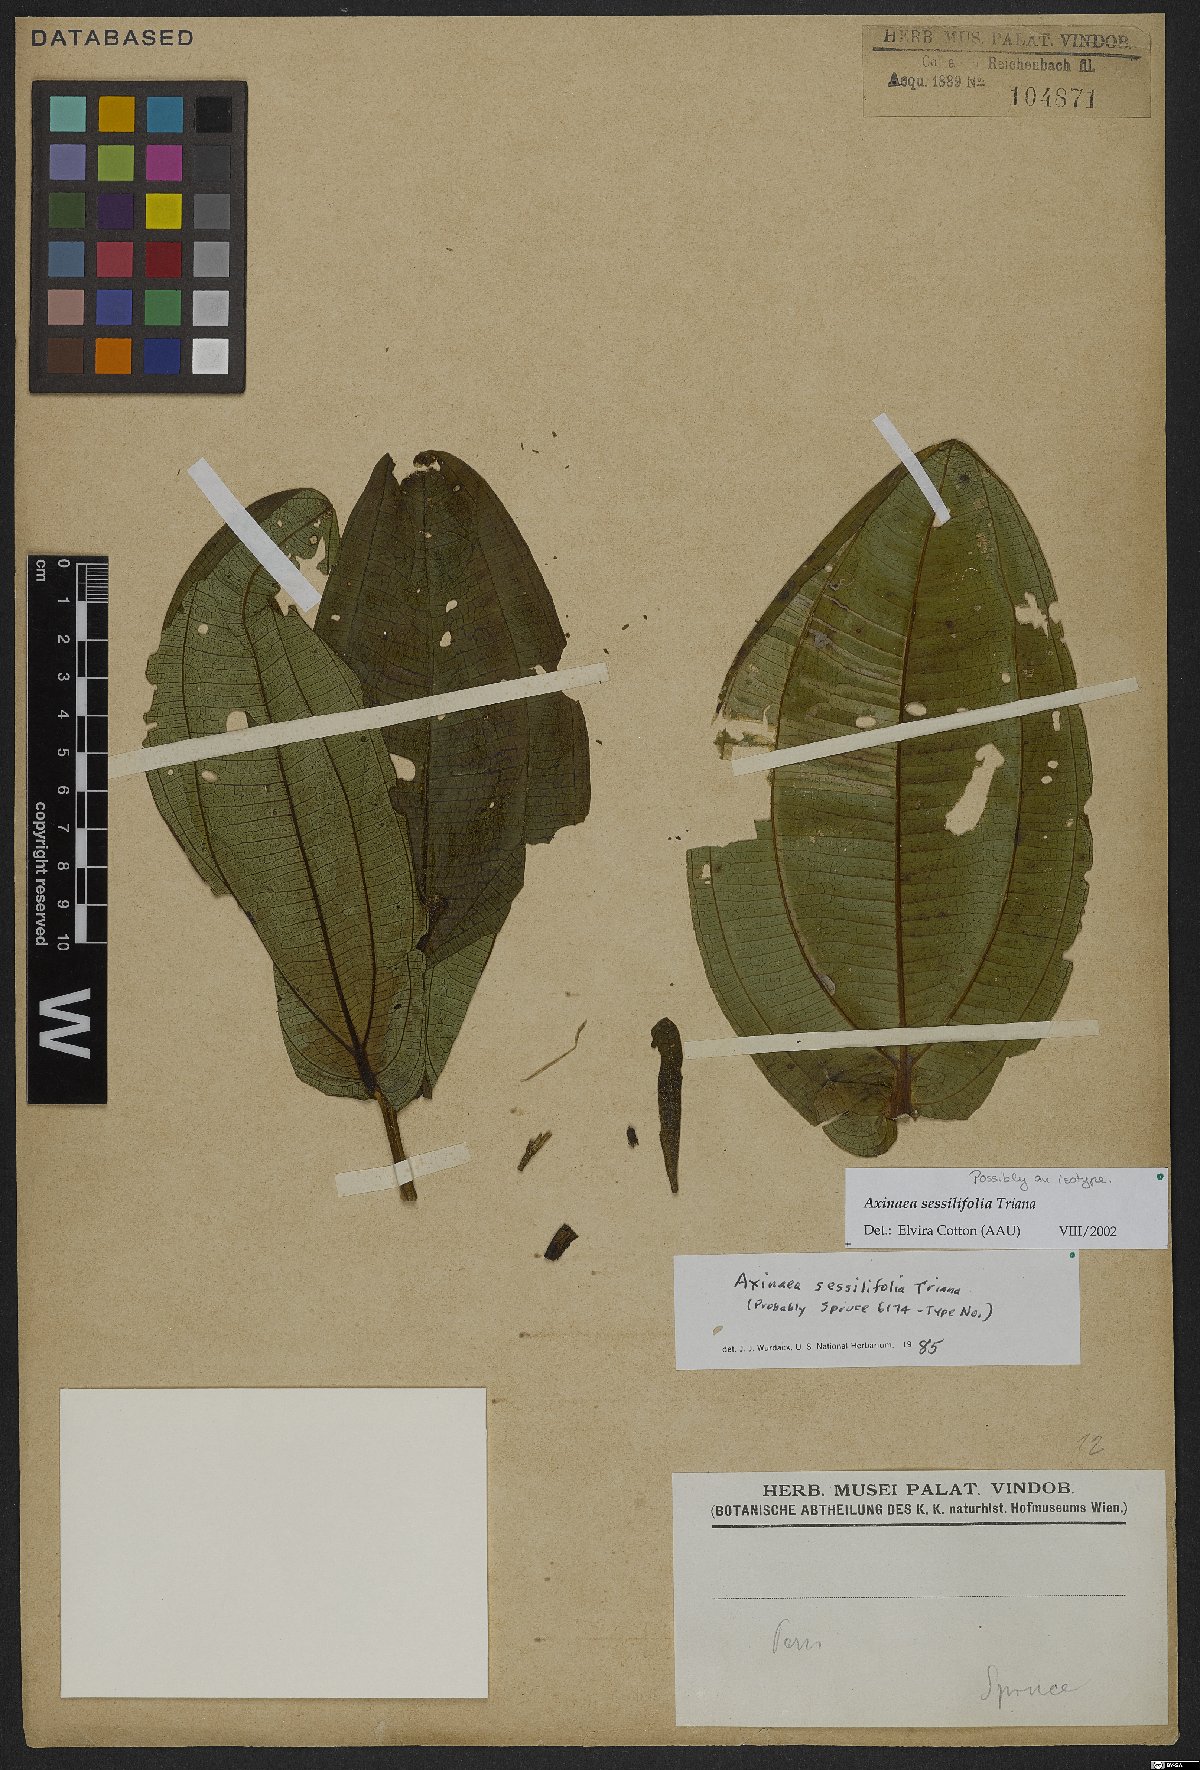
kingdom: Plantae
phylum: Tracheophyta
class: Magnoliopsida
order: Myrtales
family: Melastomataceae
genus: Axinaea
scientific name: Axinaea sessilifolia
